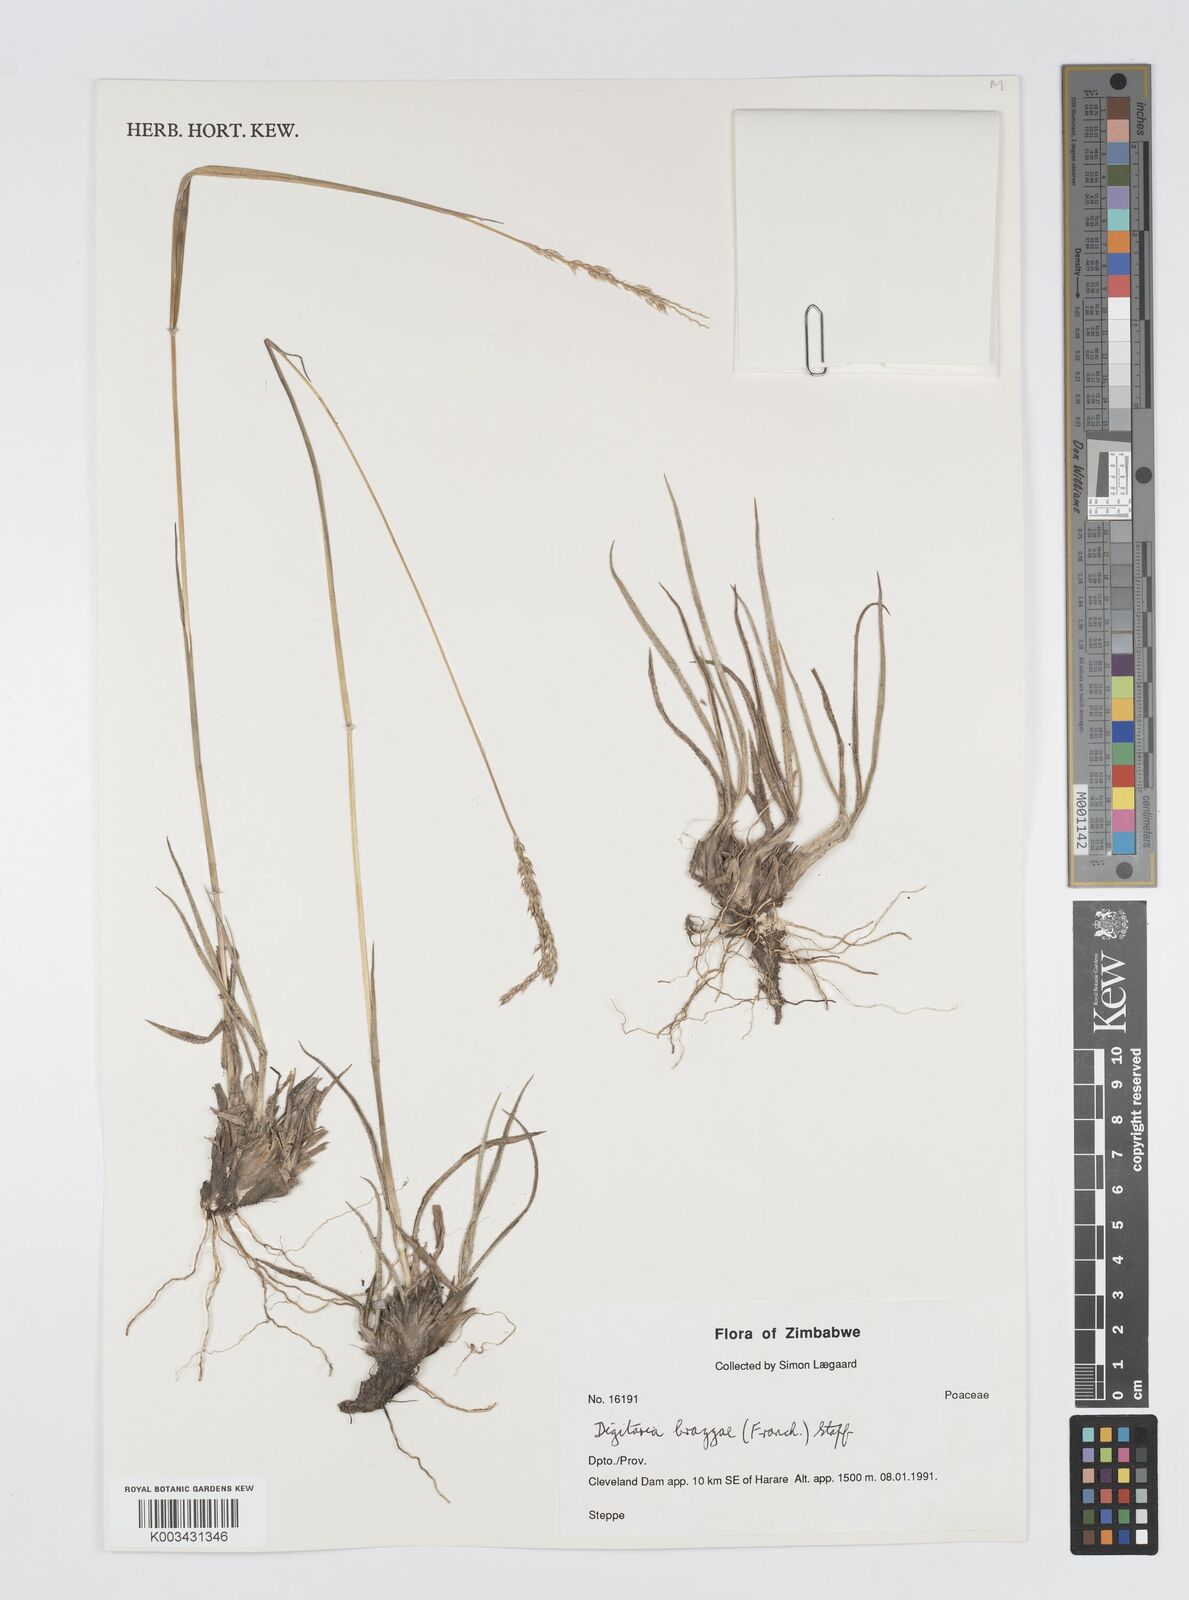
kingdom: Plantae
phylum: Tracheophyta
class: Liliopsida
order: Poales
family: Poaceae
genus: Digitaria
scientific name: Digitaria brazzae
